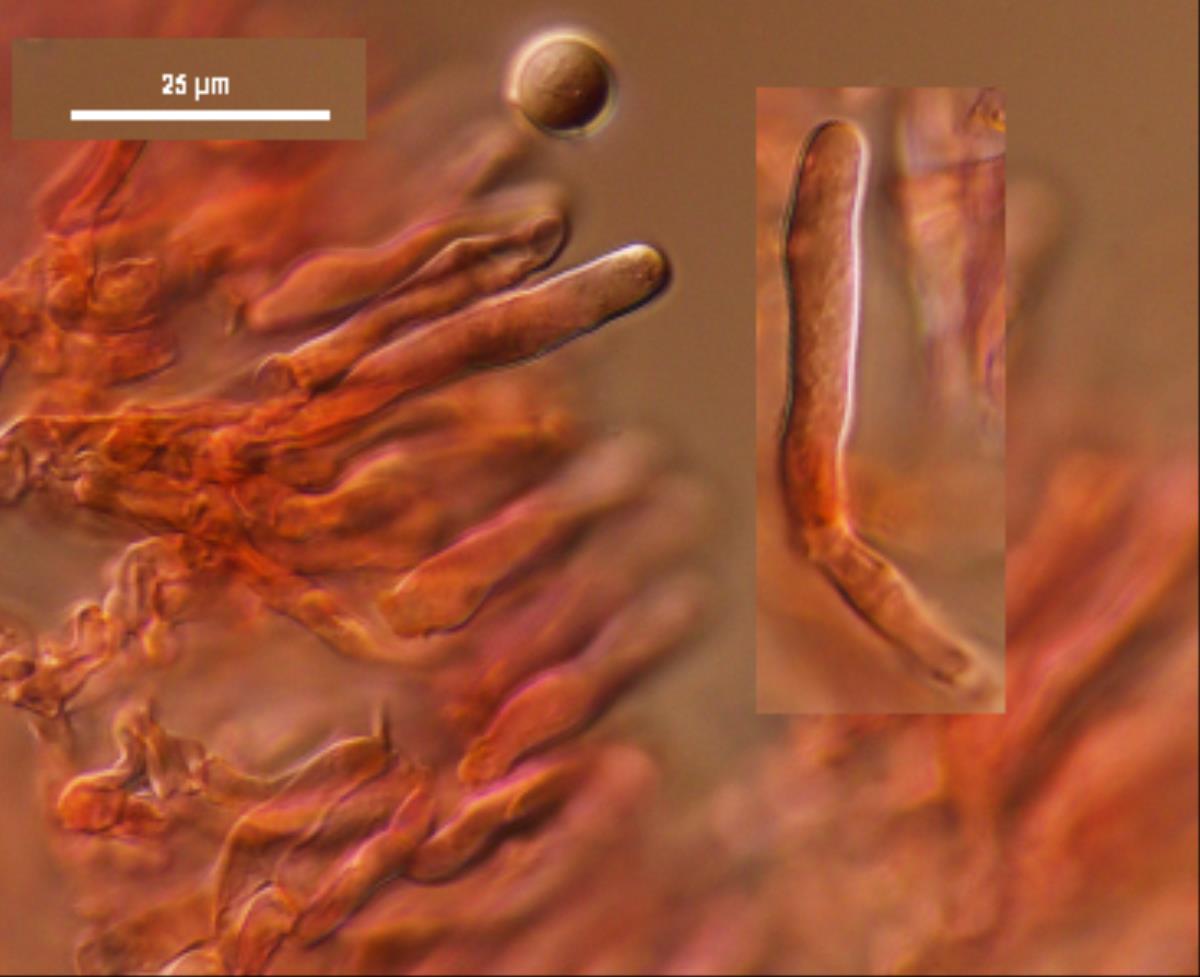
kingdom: Fungi
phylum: Basidiomycota
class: Agaricomycetes
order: Cantharellales
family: Hydnaceae
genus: Clavulina
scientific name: Clavulina brunneocinerea
